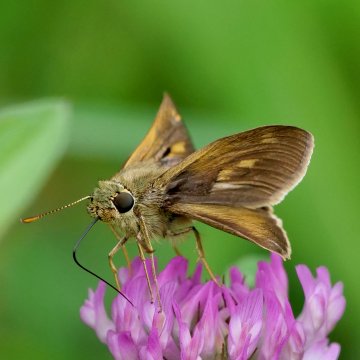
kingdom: Animalia
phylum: Arthropoda
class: Insecta
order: Lepidoptera
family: Hesperiidae
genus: Polites
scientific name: Polites egeremet
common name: Northern Broken-Dash
